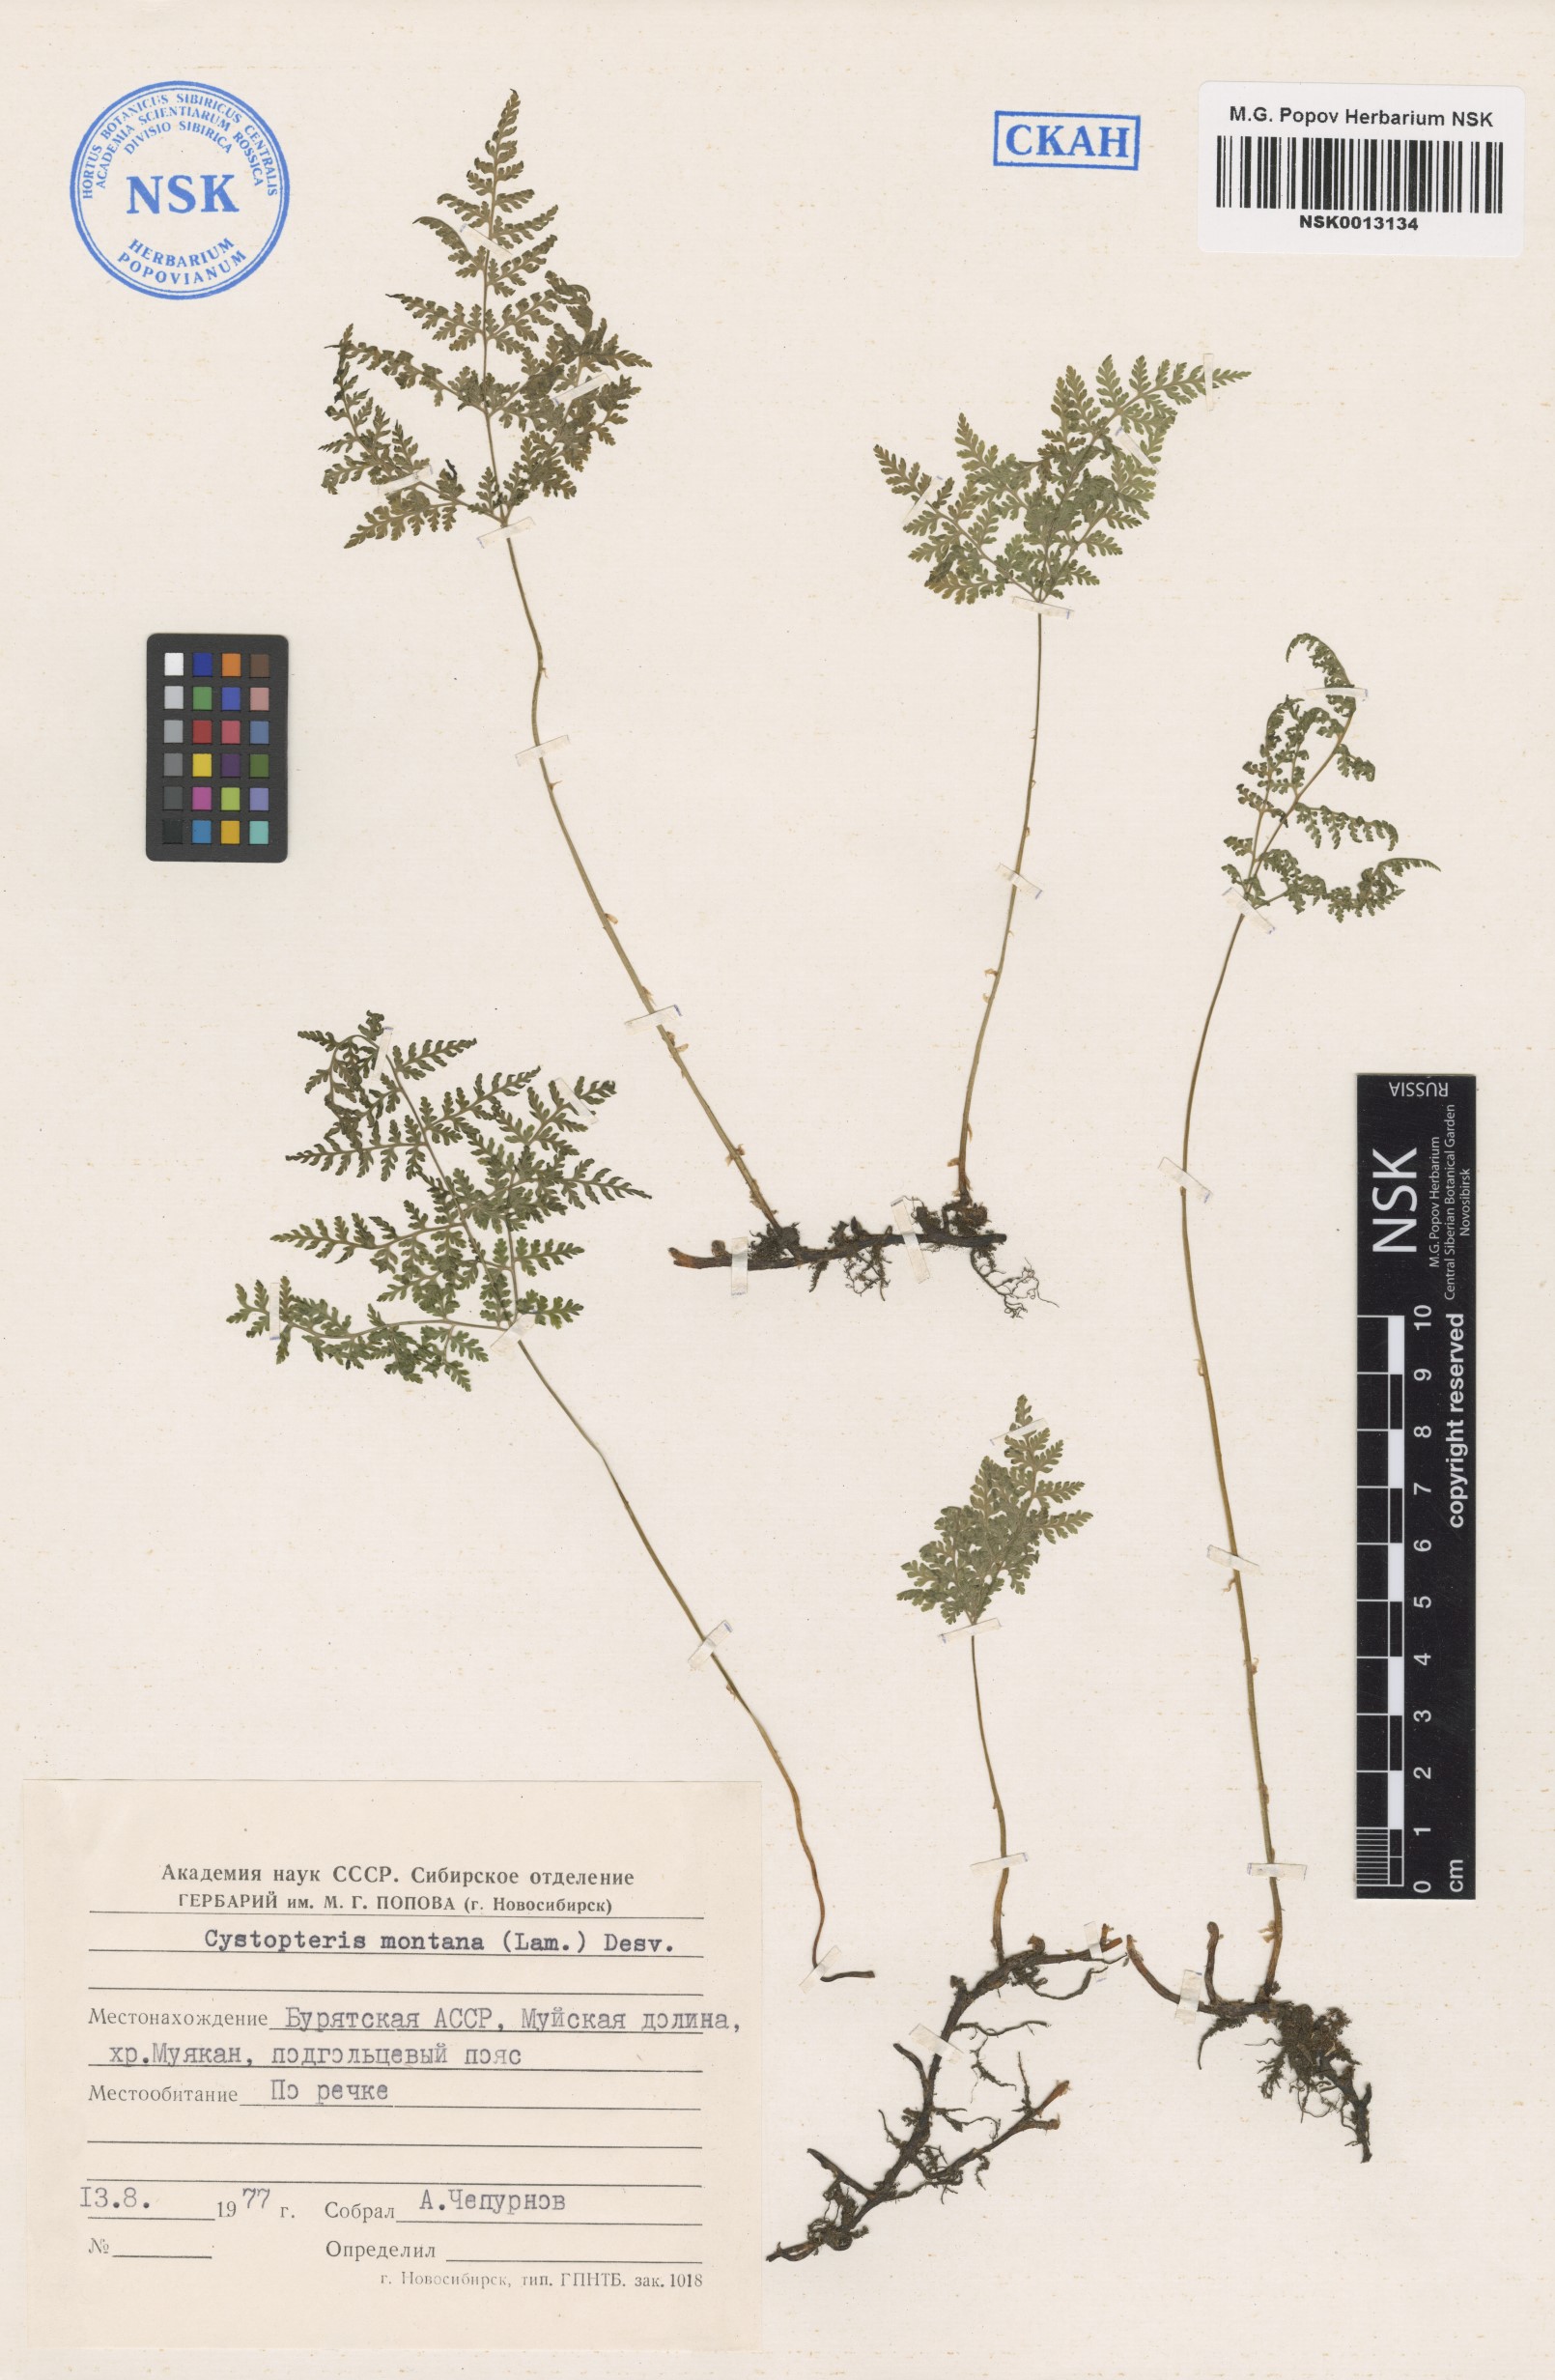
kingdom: Plantae
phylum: Tracheophyta
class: Polypodiopsida
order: Polypodiales
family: Cystopteridaceae
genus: Cystopteris
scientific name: Cystopteris montana
